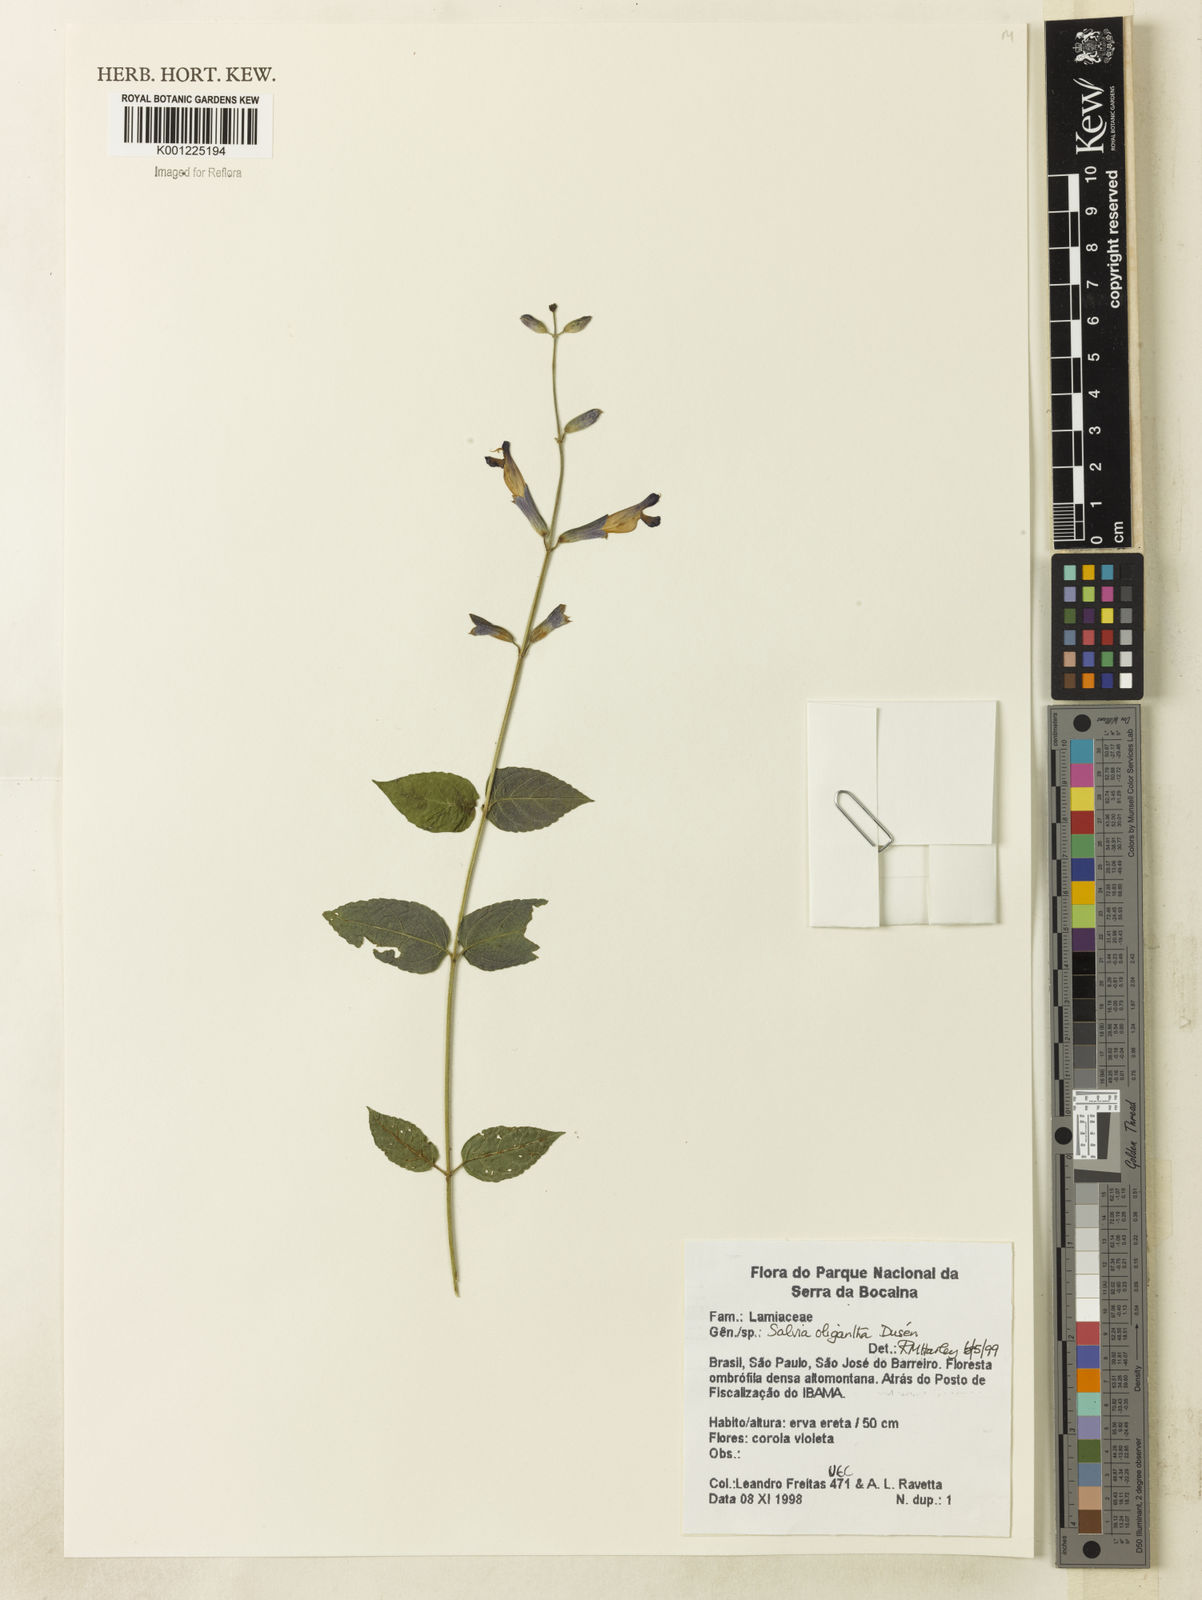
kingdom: Plantae
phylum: Tracheophyta
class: Magnoliopsida
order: Lamiales
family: Lamiaceae
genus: Salvia
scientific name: Salvia
